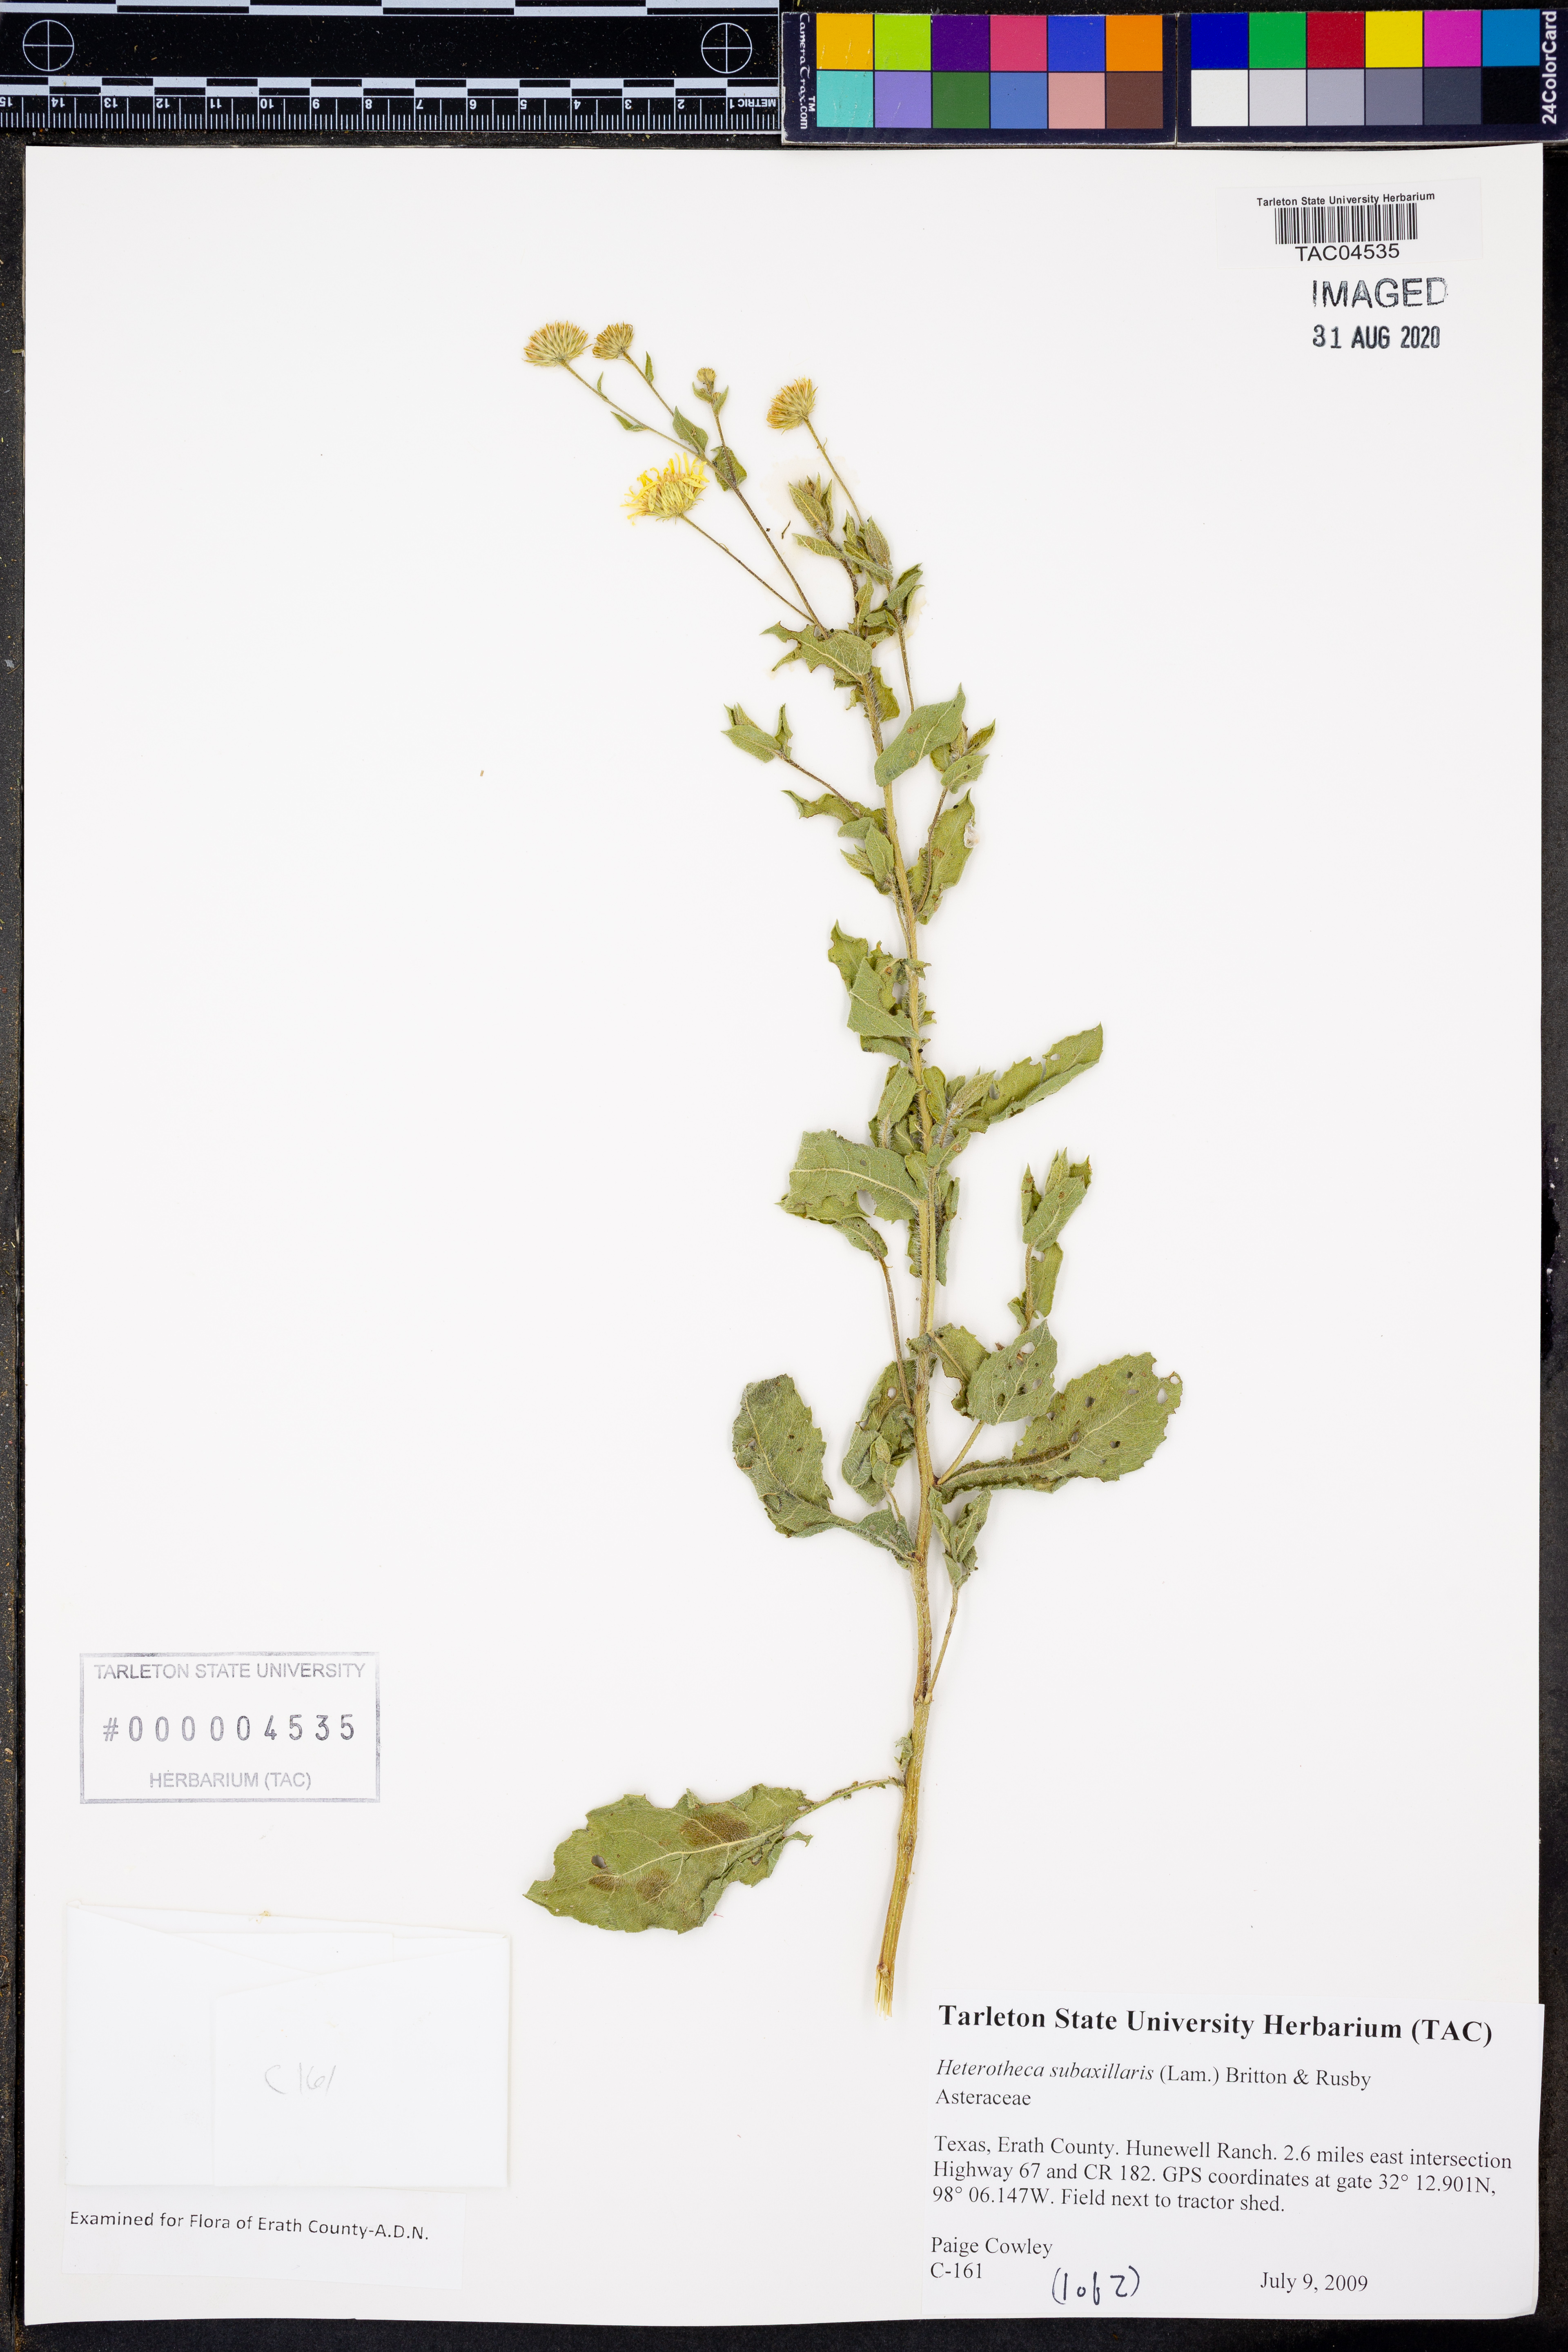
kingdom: Plantae
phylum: Tracheophyta
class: Magnoliopsida
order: Asterales
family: Asteraceae
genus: Heterotheca
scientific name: Heterotheca subaxillaris
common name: Camphorweed
